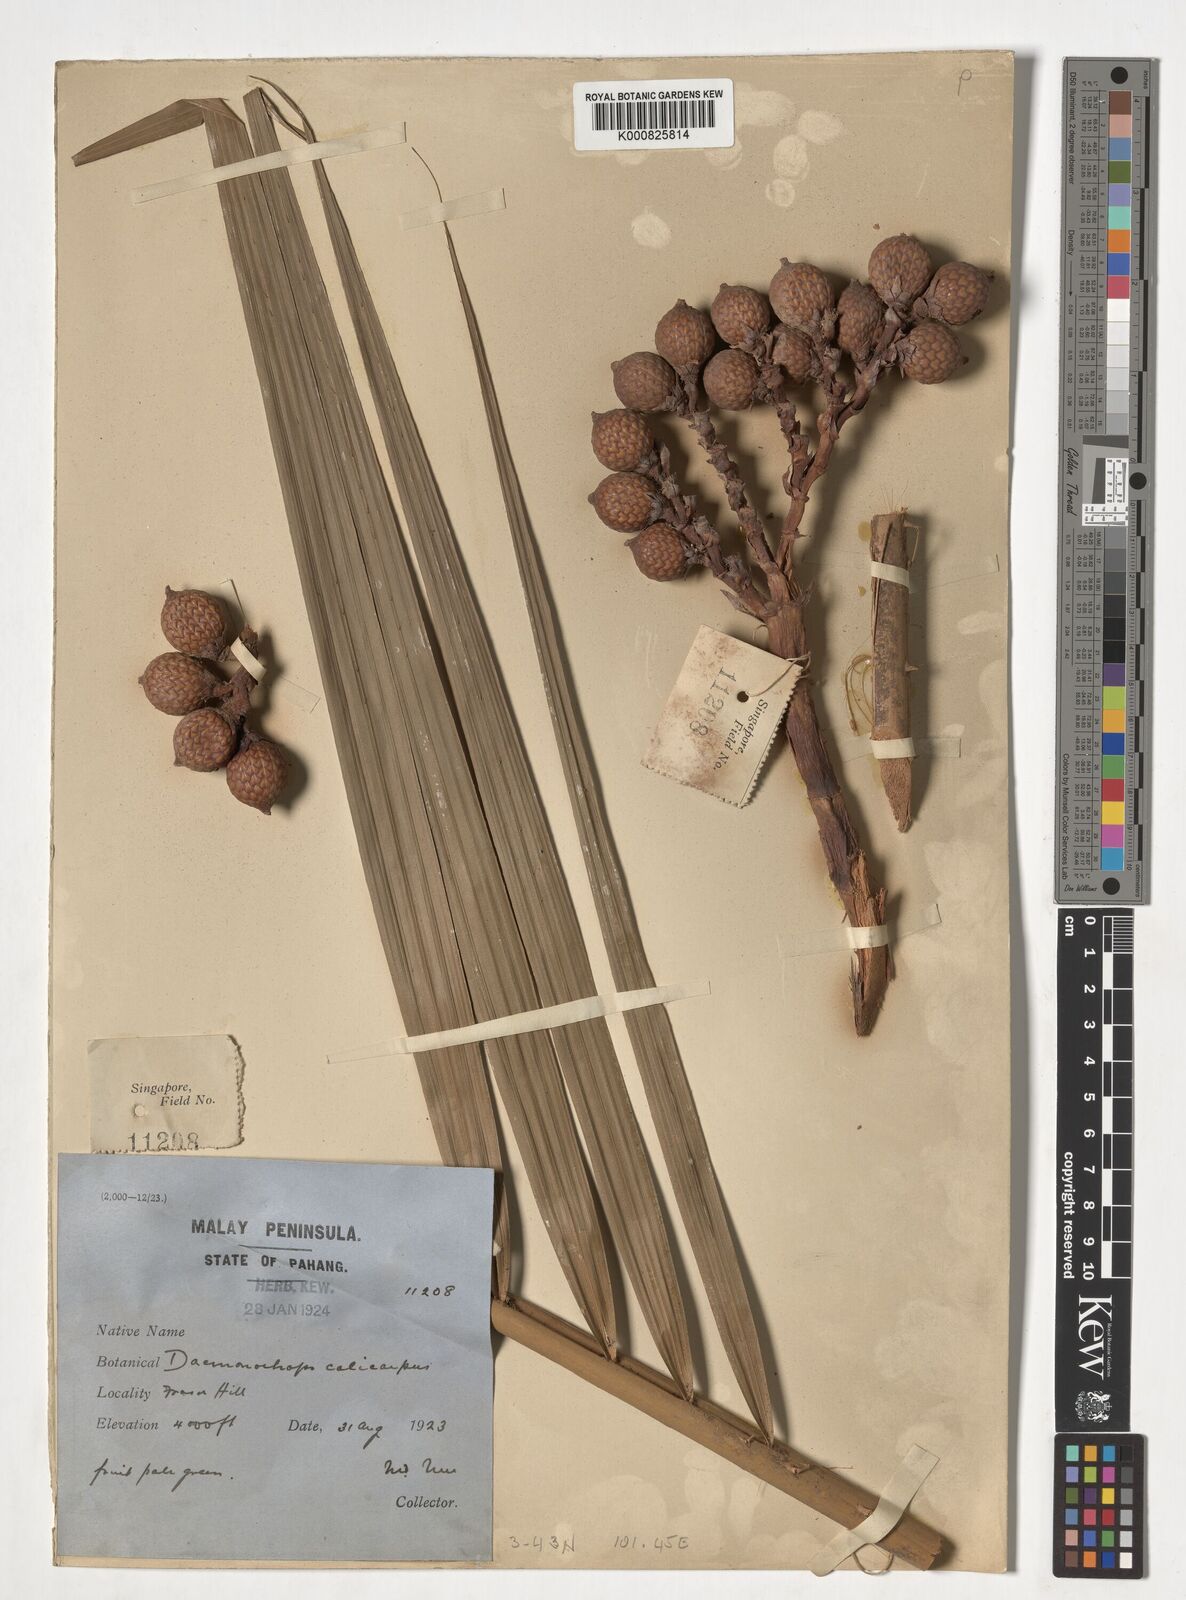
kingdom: Plantae
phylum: Tracheophyta
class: Liliopsida
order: Arecales
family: Arecaceae
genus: Calamus
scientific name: Calamus calicarpus
